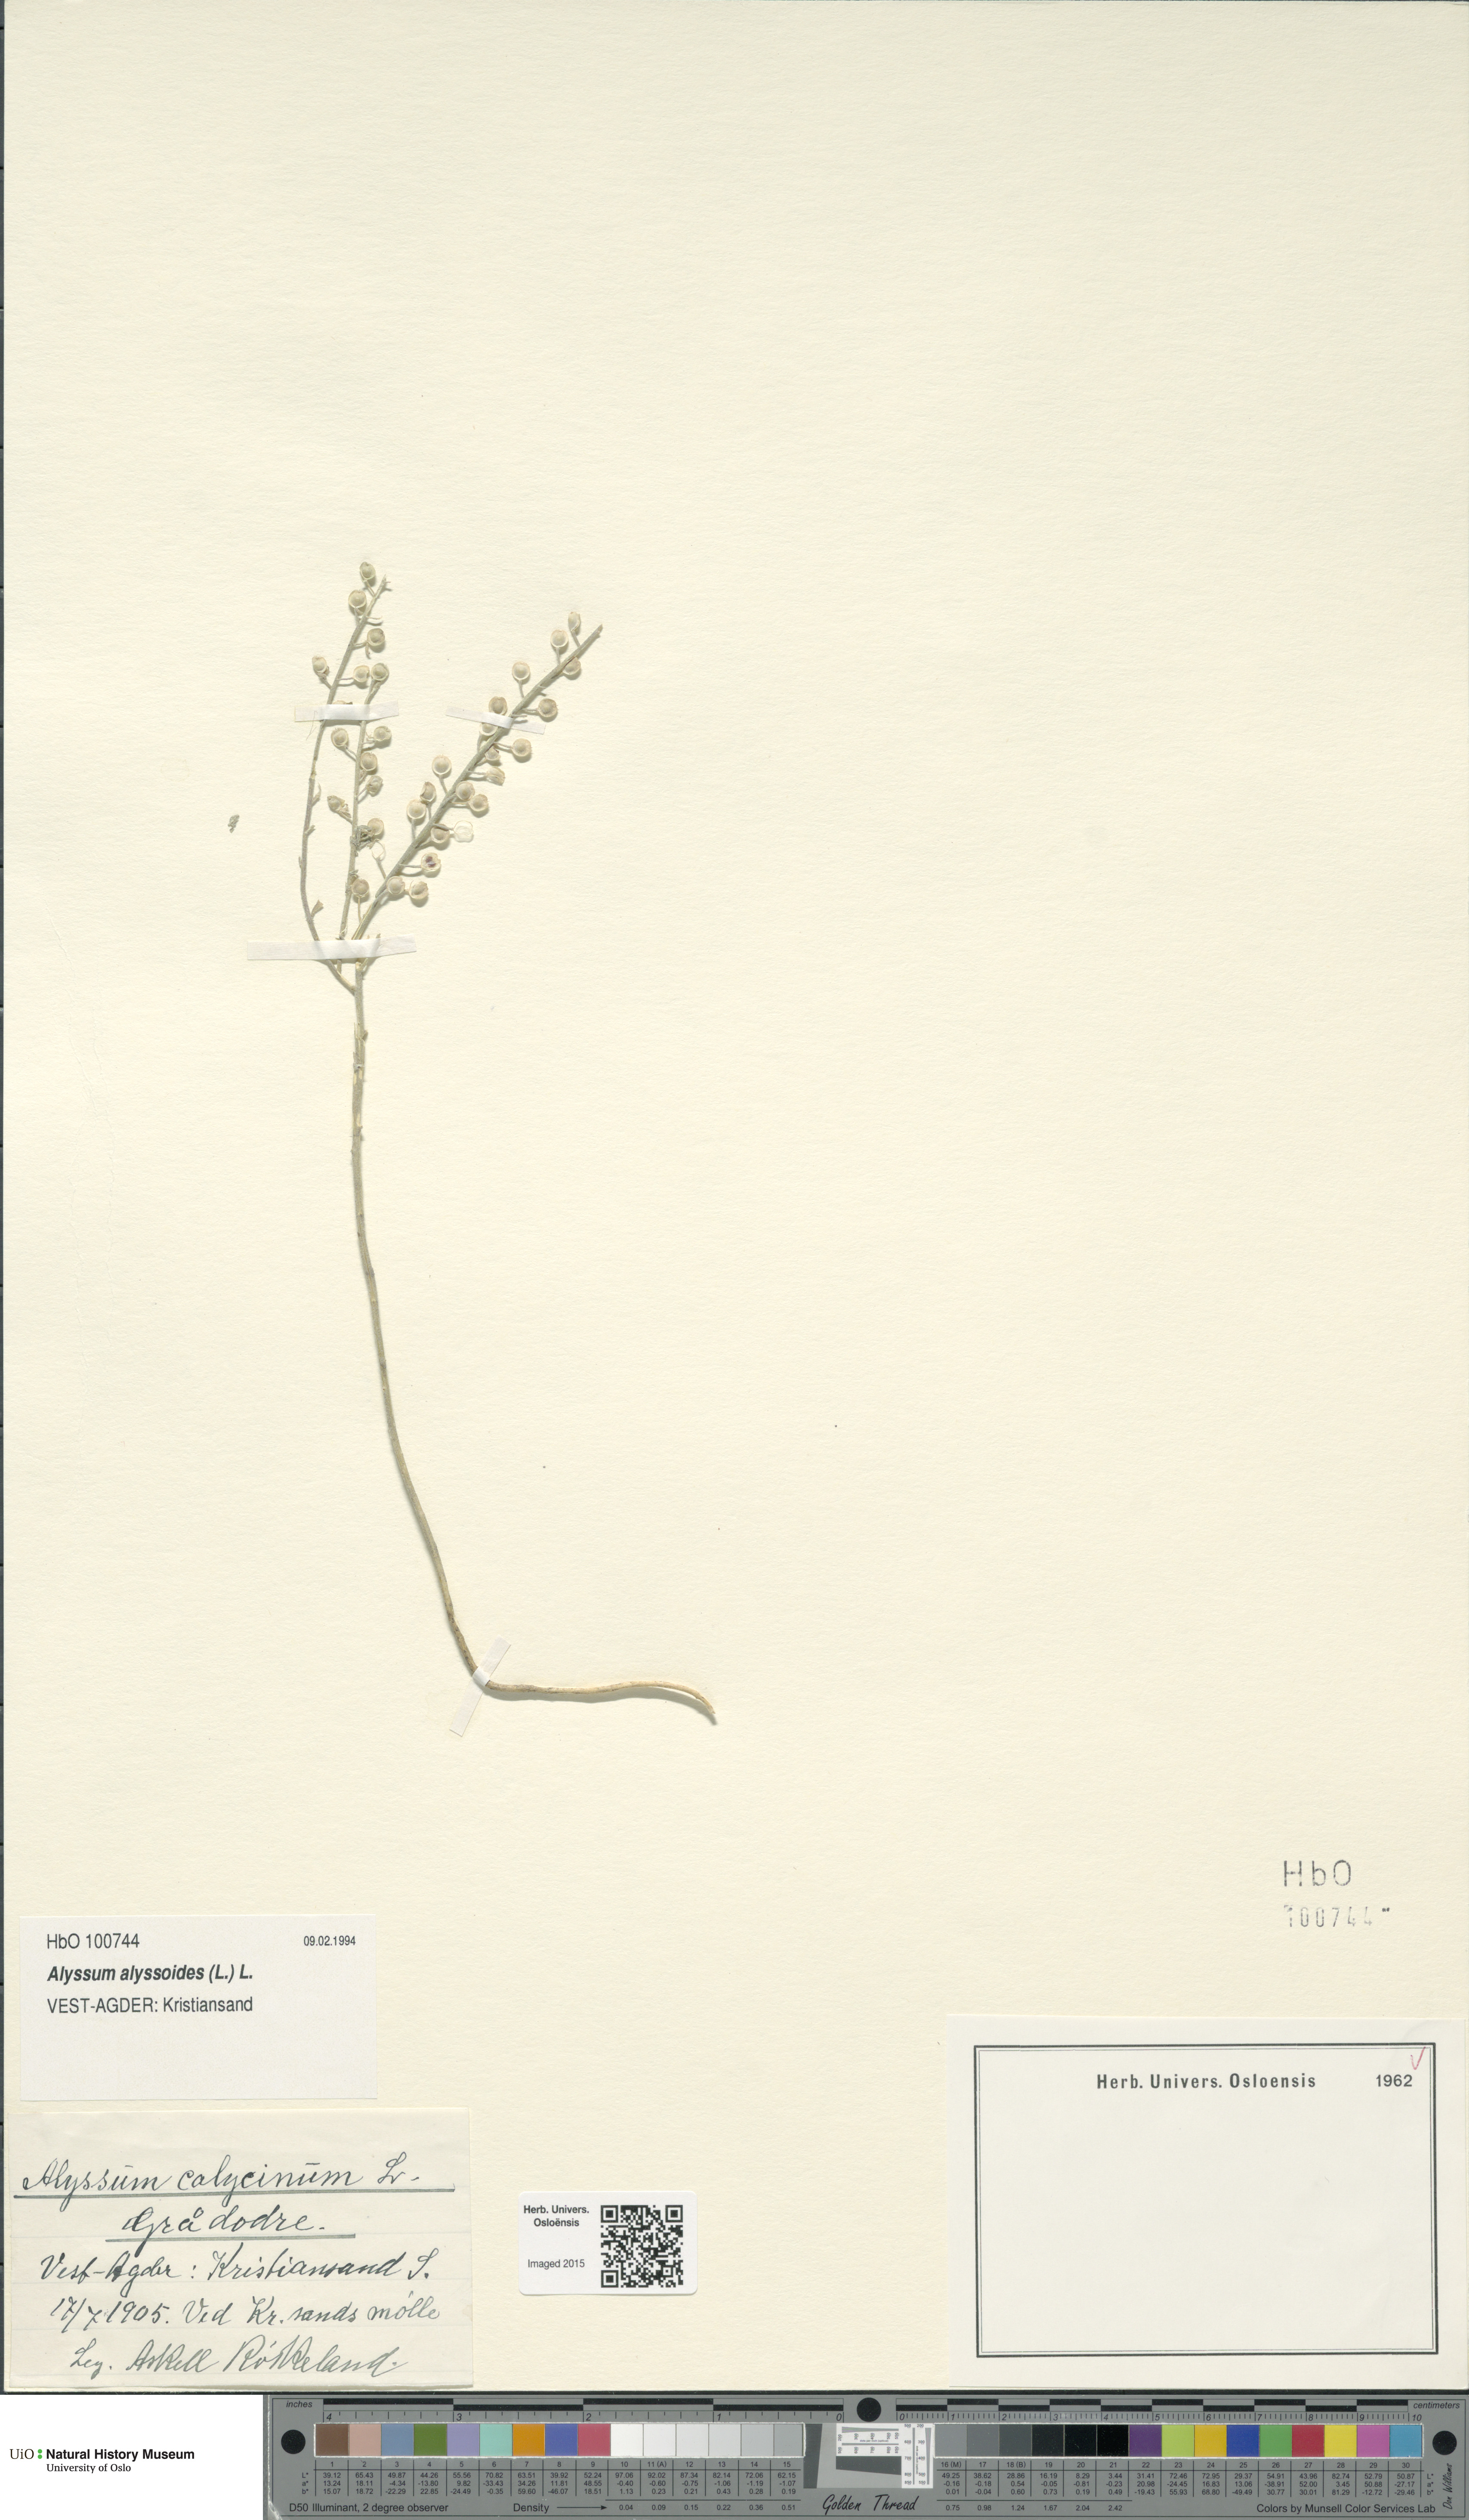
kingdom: Plantae
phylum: Tracheophyta
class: Magnoliopsida
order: Brassicales
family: Brassicaceae
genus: Alyssum
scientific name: Alyssum alyssoides
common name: Small alison
